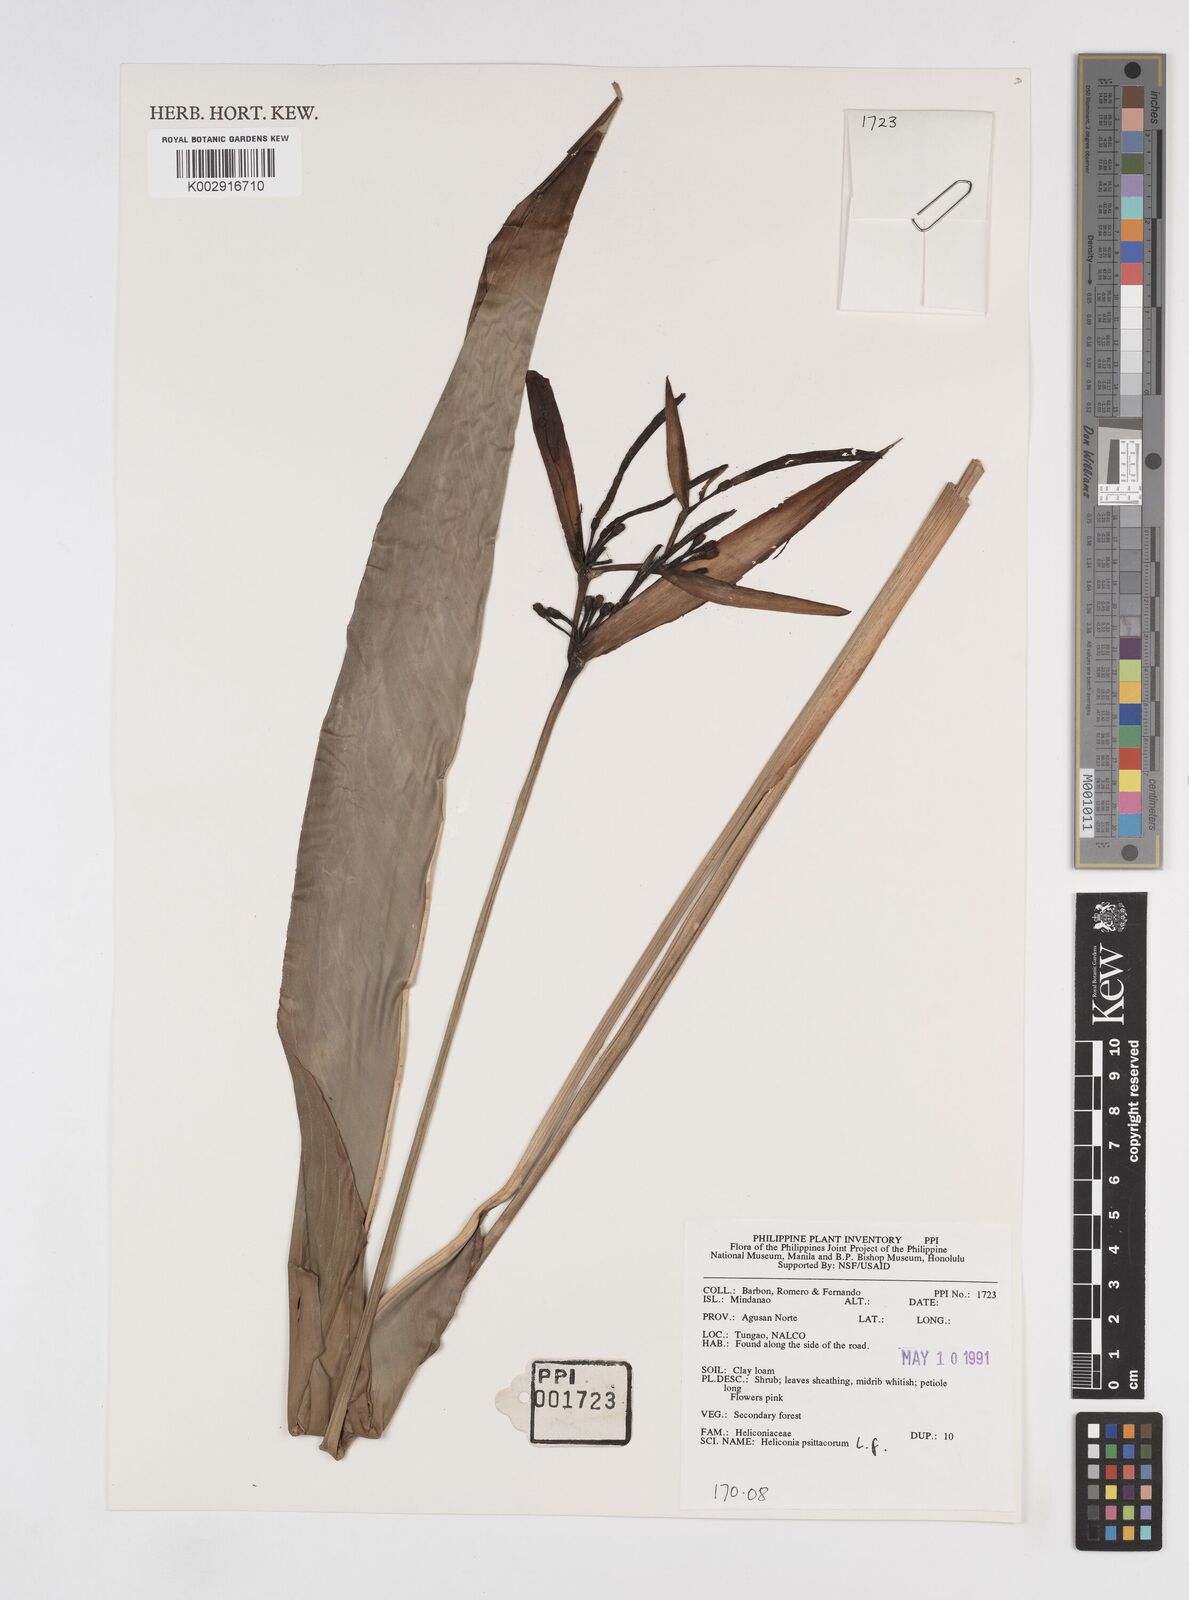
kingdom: Plantae
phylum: Tracheophyta
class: Liliopsida
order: Zingiberales
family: Heliconiaceae
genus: Heliconia
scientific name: Heliconia psittacorum
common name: Parrot's-flower
